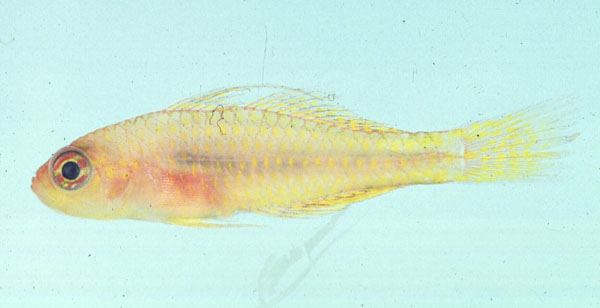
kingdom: Animalia
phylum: Chordata
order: Perciformes
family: Gobiidae
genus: Trimma
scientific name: Trimma taylori
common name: Cave dwarfgoby
